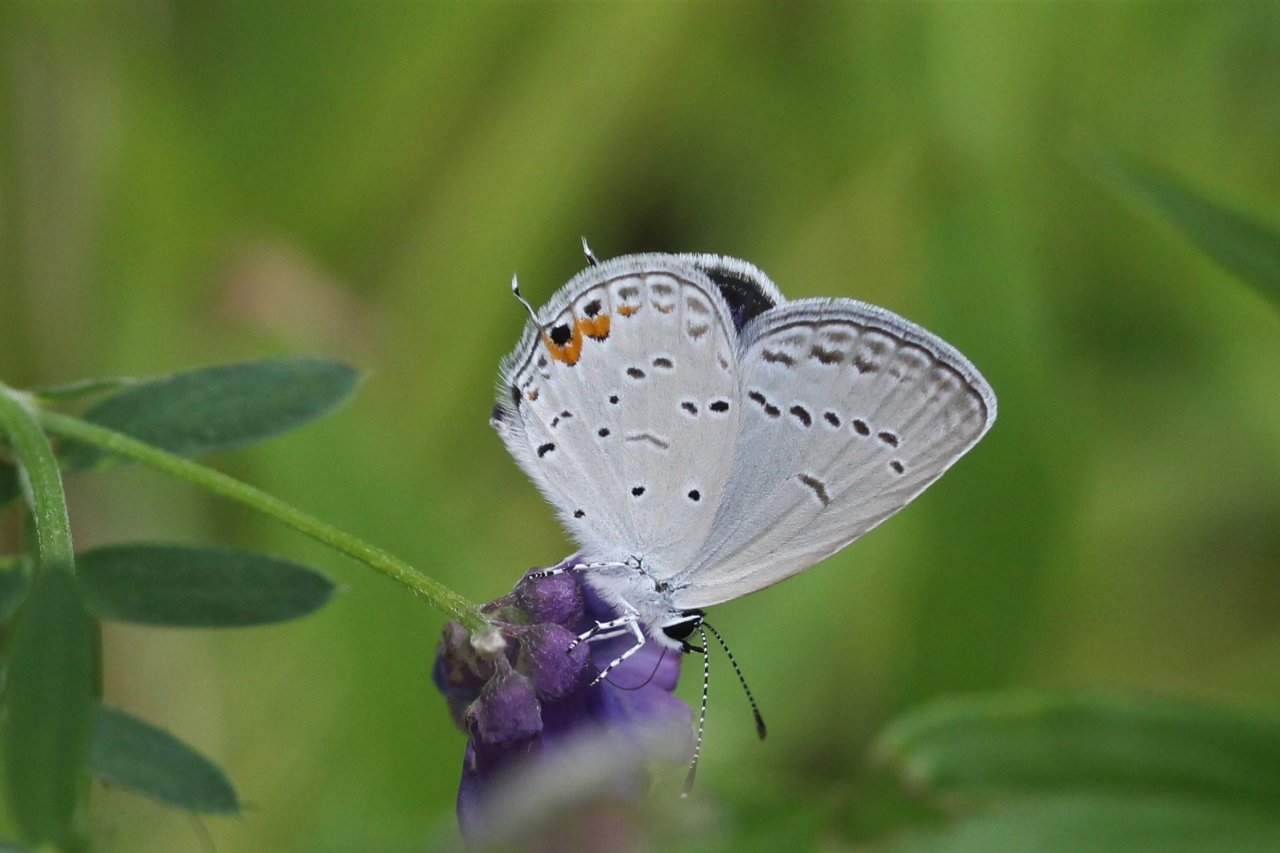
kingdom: Animalia
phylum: Arthropoda
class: Insecta
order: Lepidoptera
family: Lycaenidae
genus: Elkalyce
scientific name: Elkalyce comyntas
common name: Eastern Tailed-Blue
